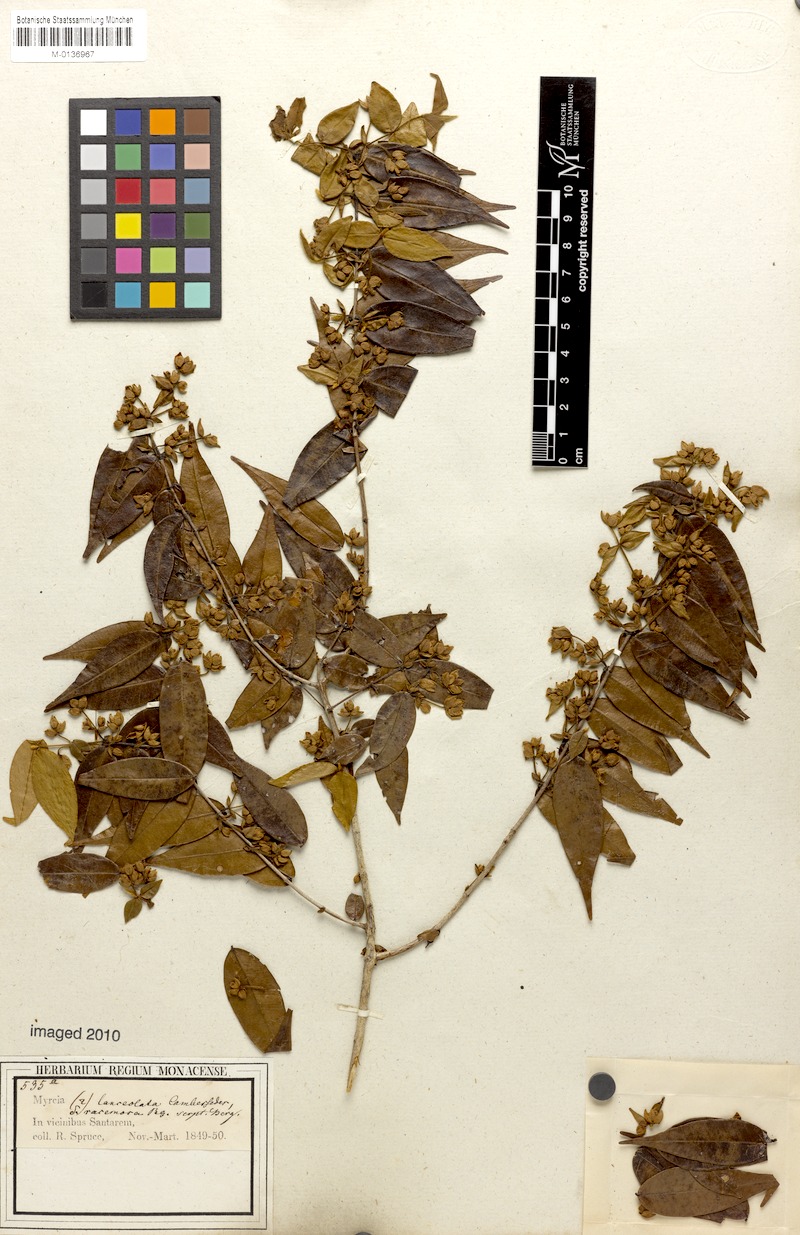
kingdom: Plantae
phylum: Tracheophyta
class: Magnoliopsida
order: Myrtales
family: Myrtaceae
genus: Myrcia
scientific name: Myrcia bracteata
